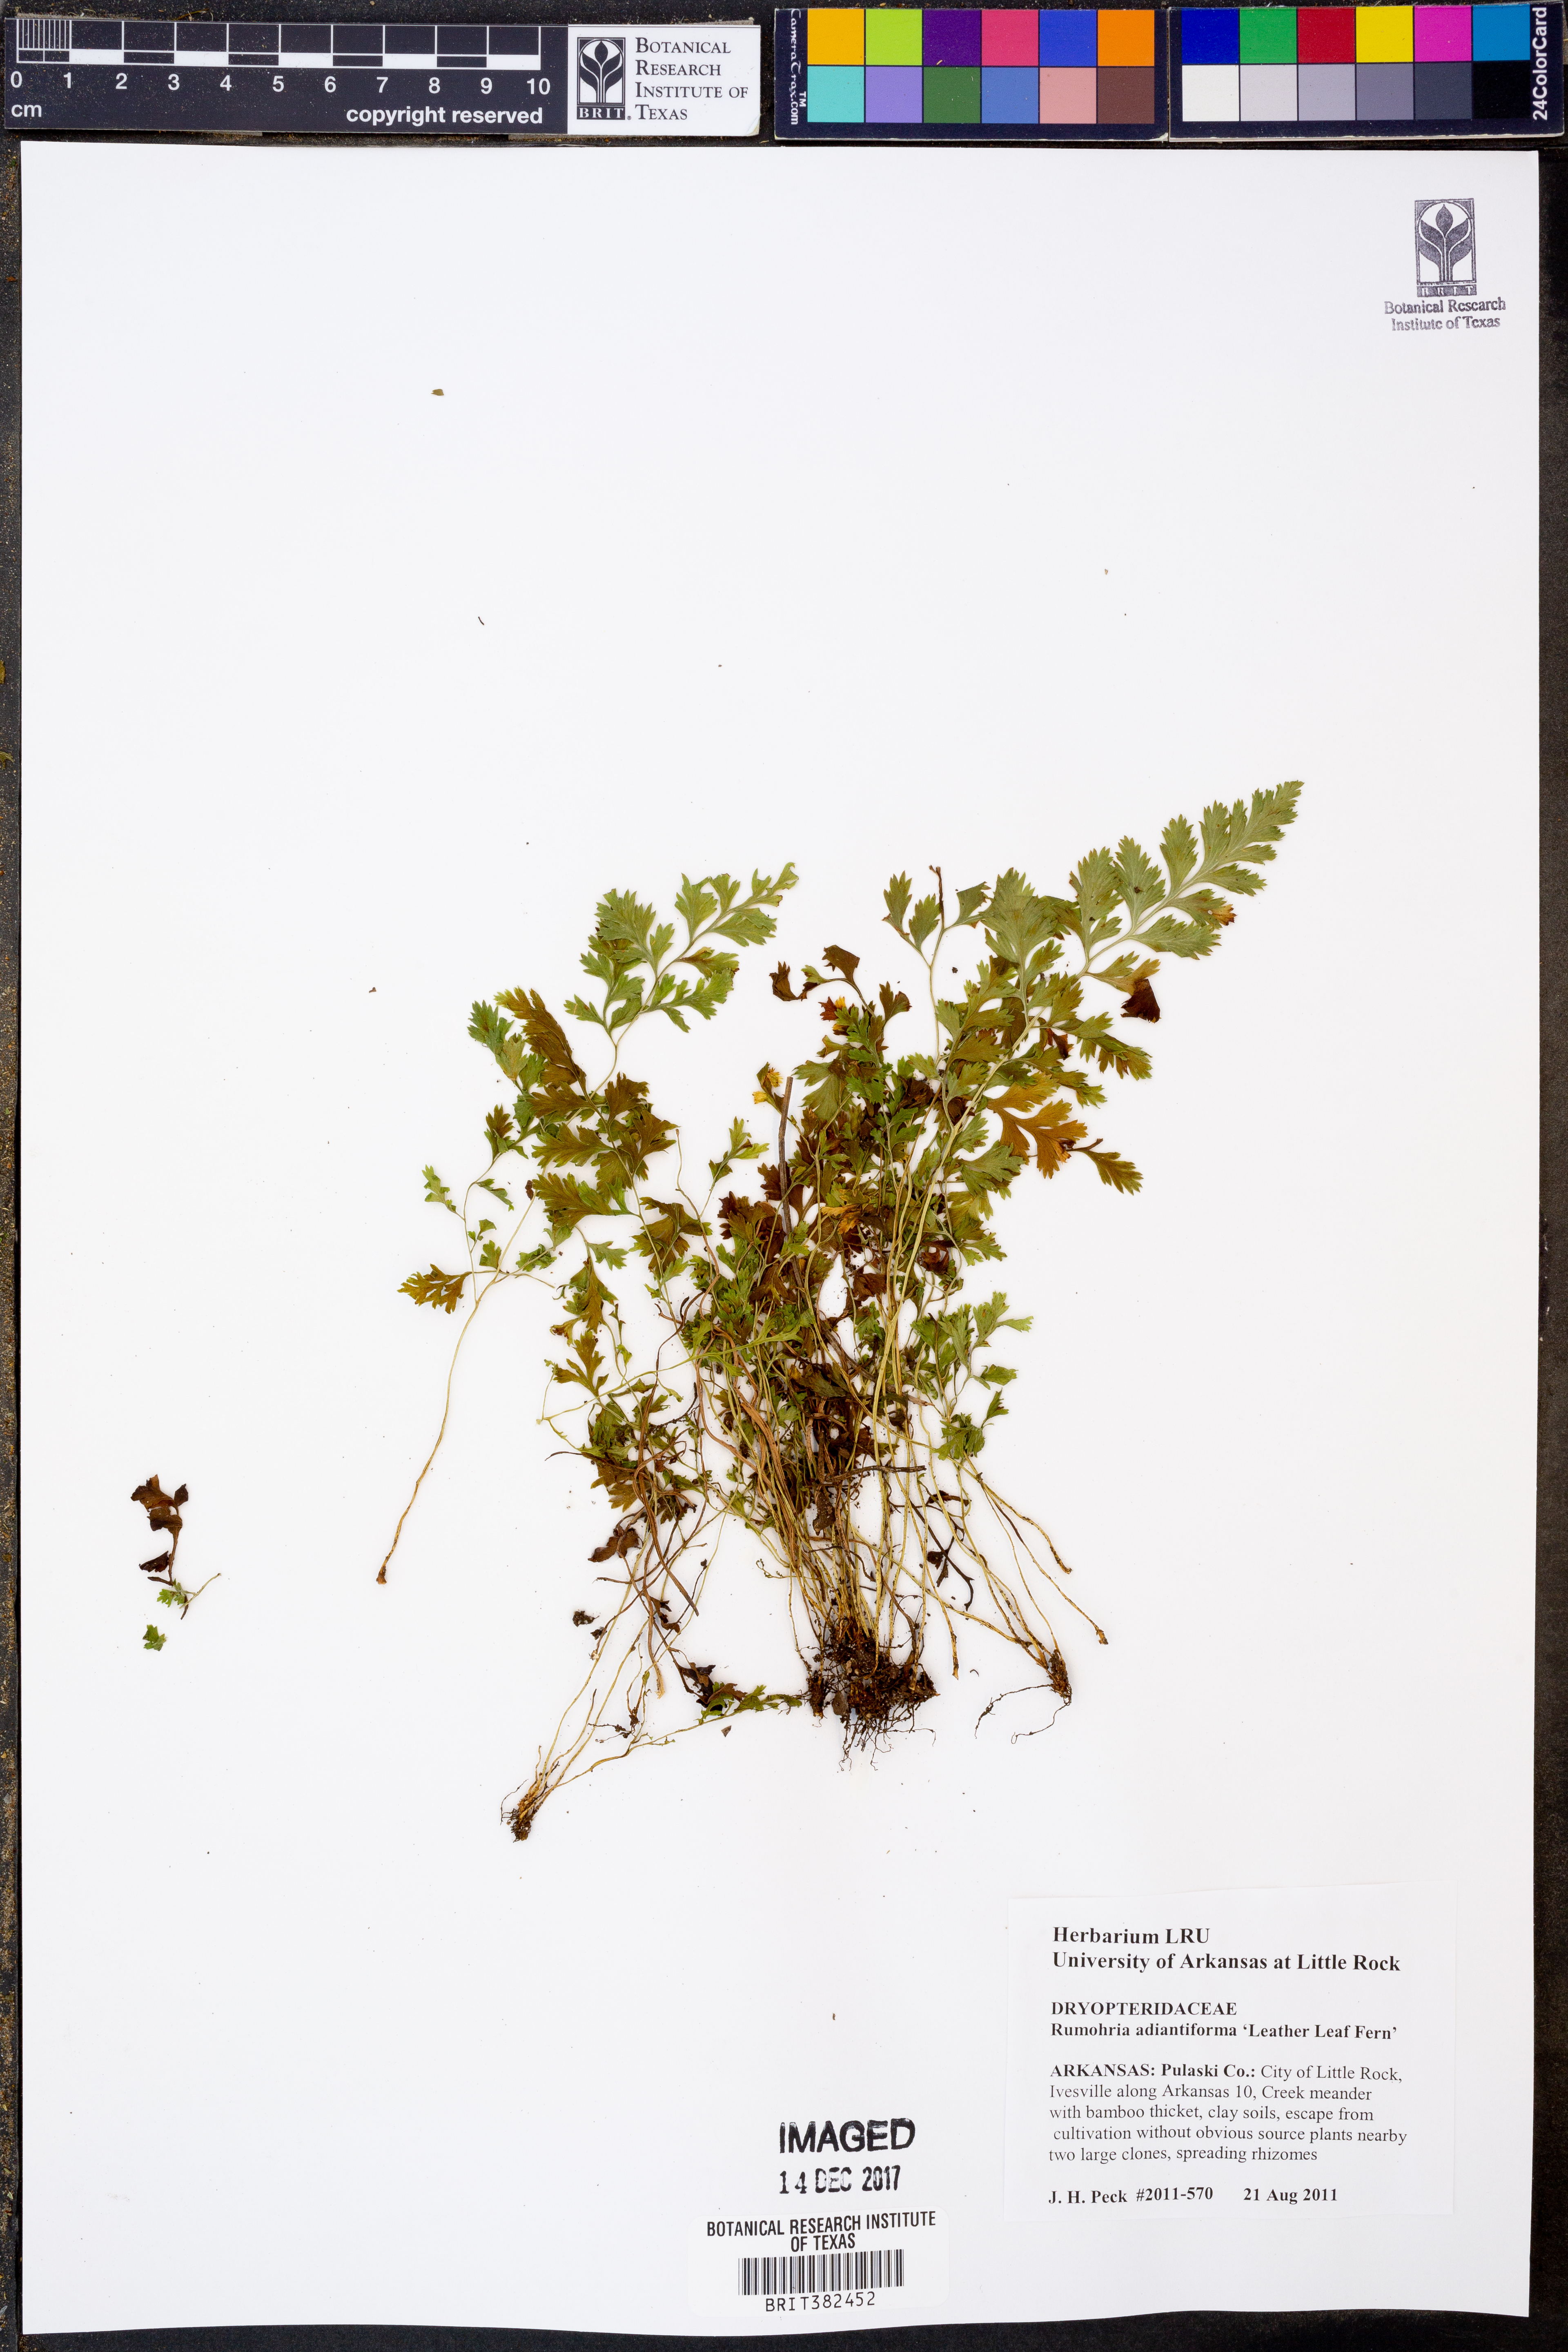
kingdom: Plantae
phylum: Tracheophyta
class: Polypodiopsida
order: Polypodiales
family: Dryopteridaceae
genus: Rumohra
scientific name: Rumohra adiantiformis
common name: Leather fern
